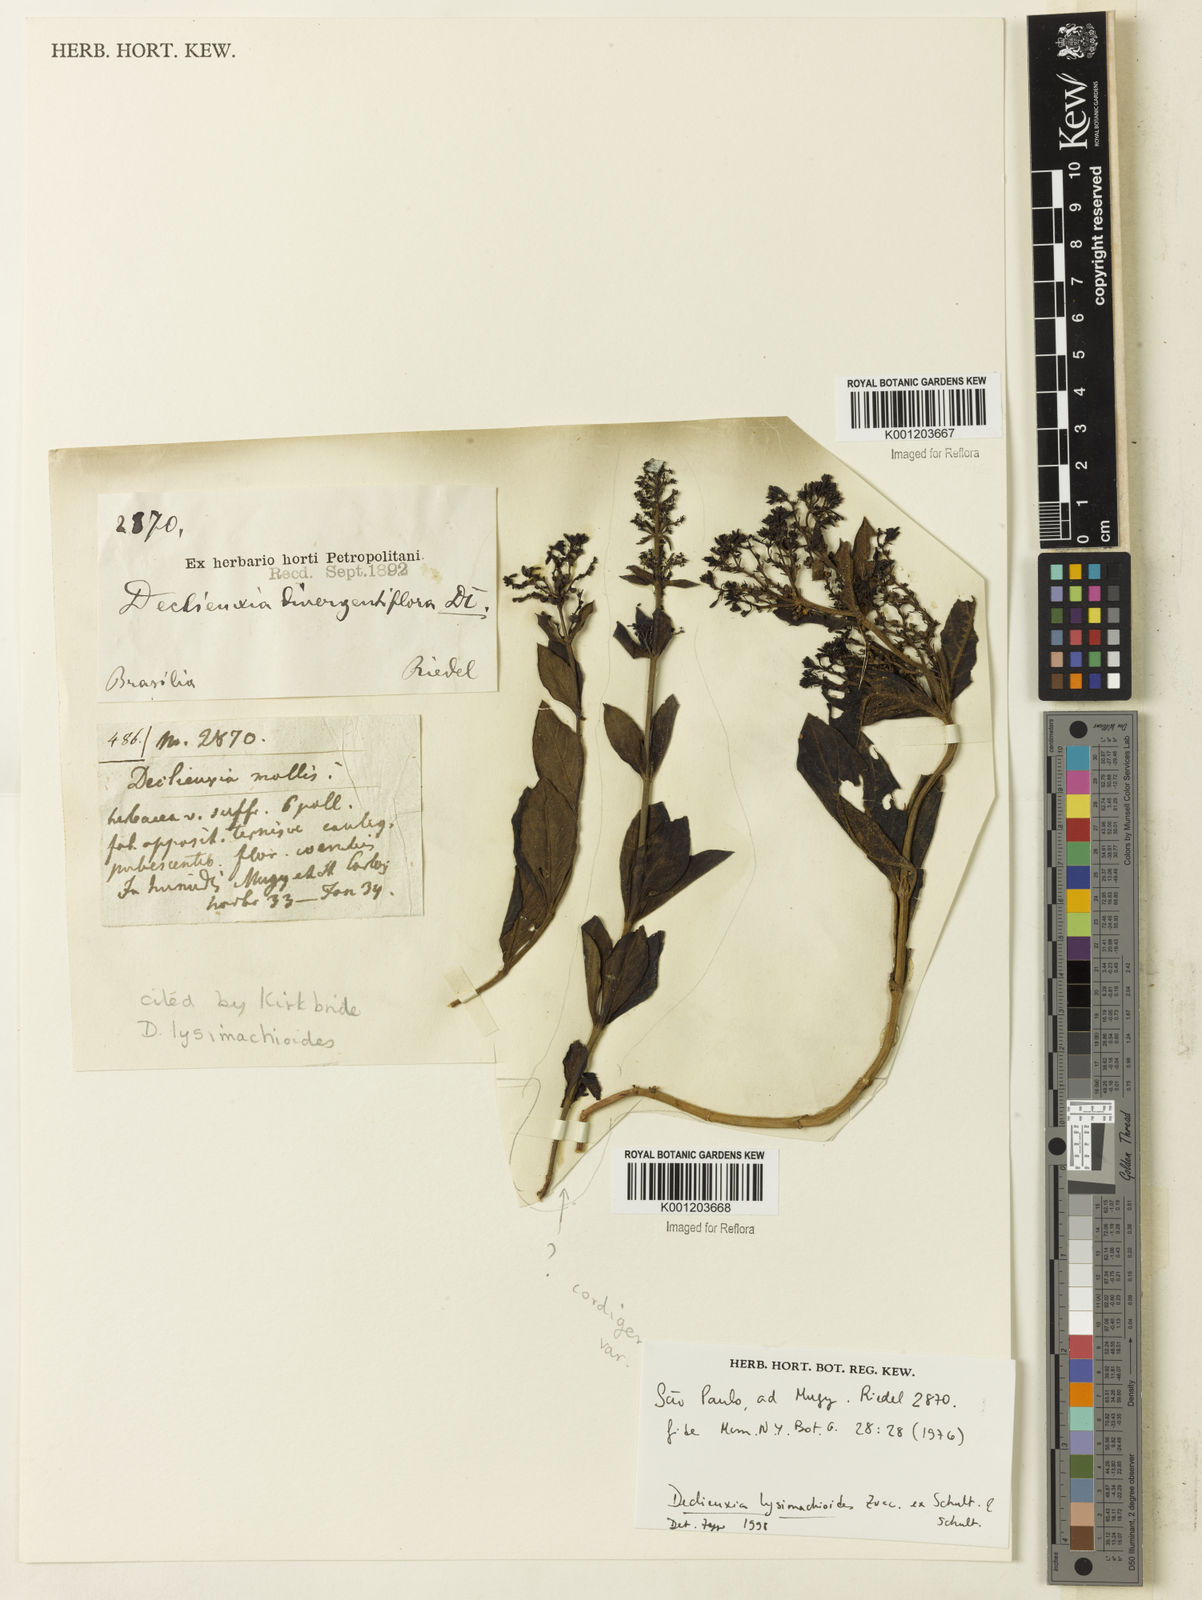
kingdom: Plantae
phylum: Tracheophyta
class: Magnoliopsida
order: Gentianales
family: Rubiaceae
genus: Declieuxia
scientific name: Declieuxia
